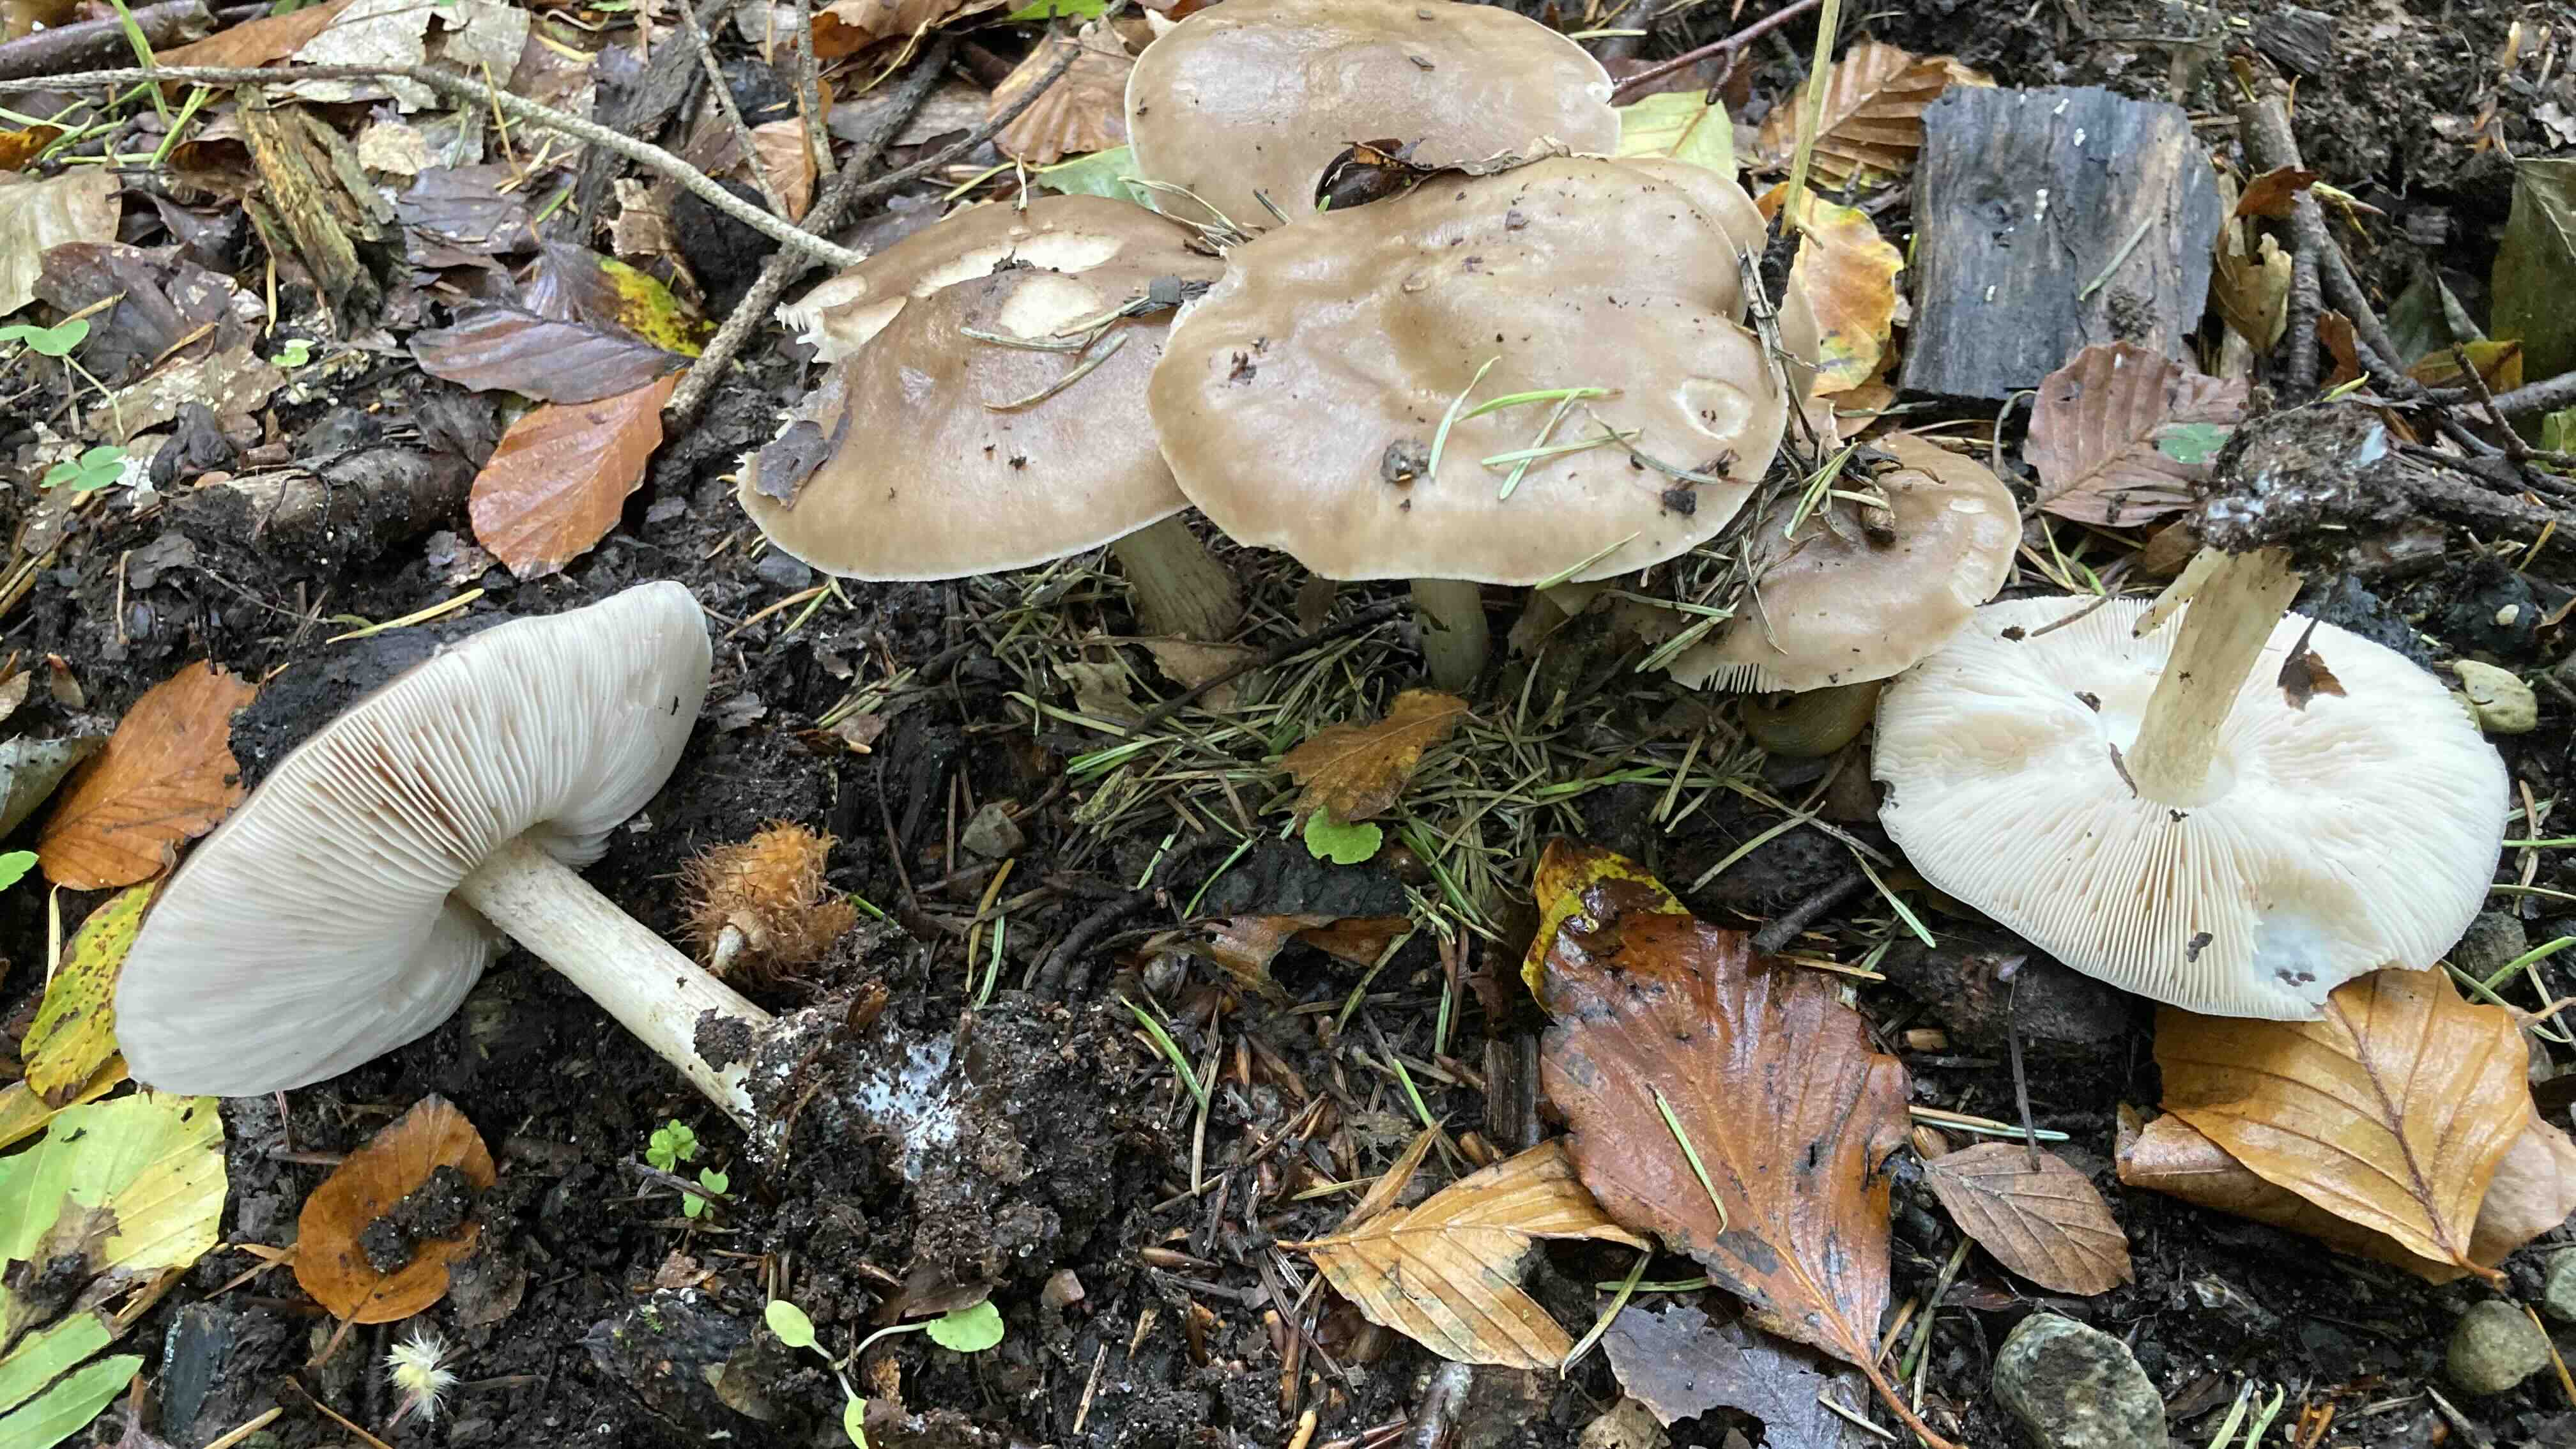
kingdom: Fungi
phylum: Basidiomycota
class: Agaricomycetes
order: Agaricales
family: Pluteaceae
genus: Pluteus
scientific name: Pluteus cervinus
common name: sodfarvet skærmhat
